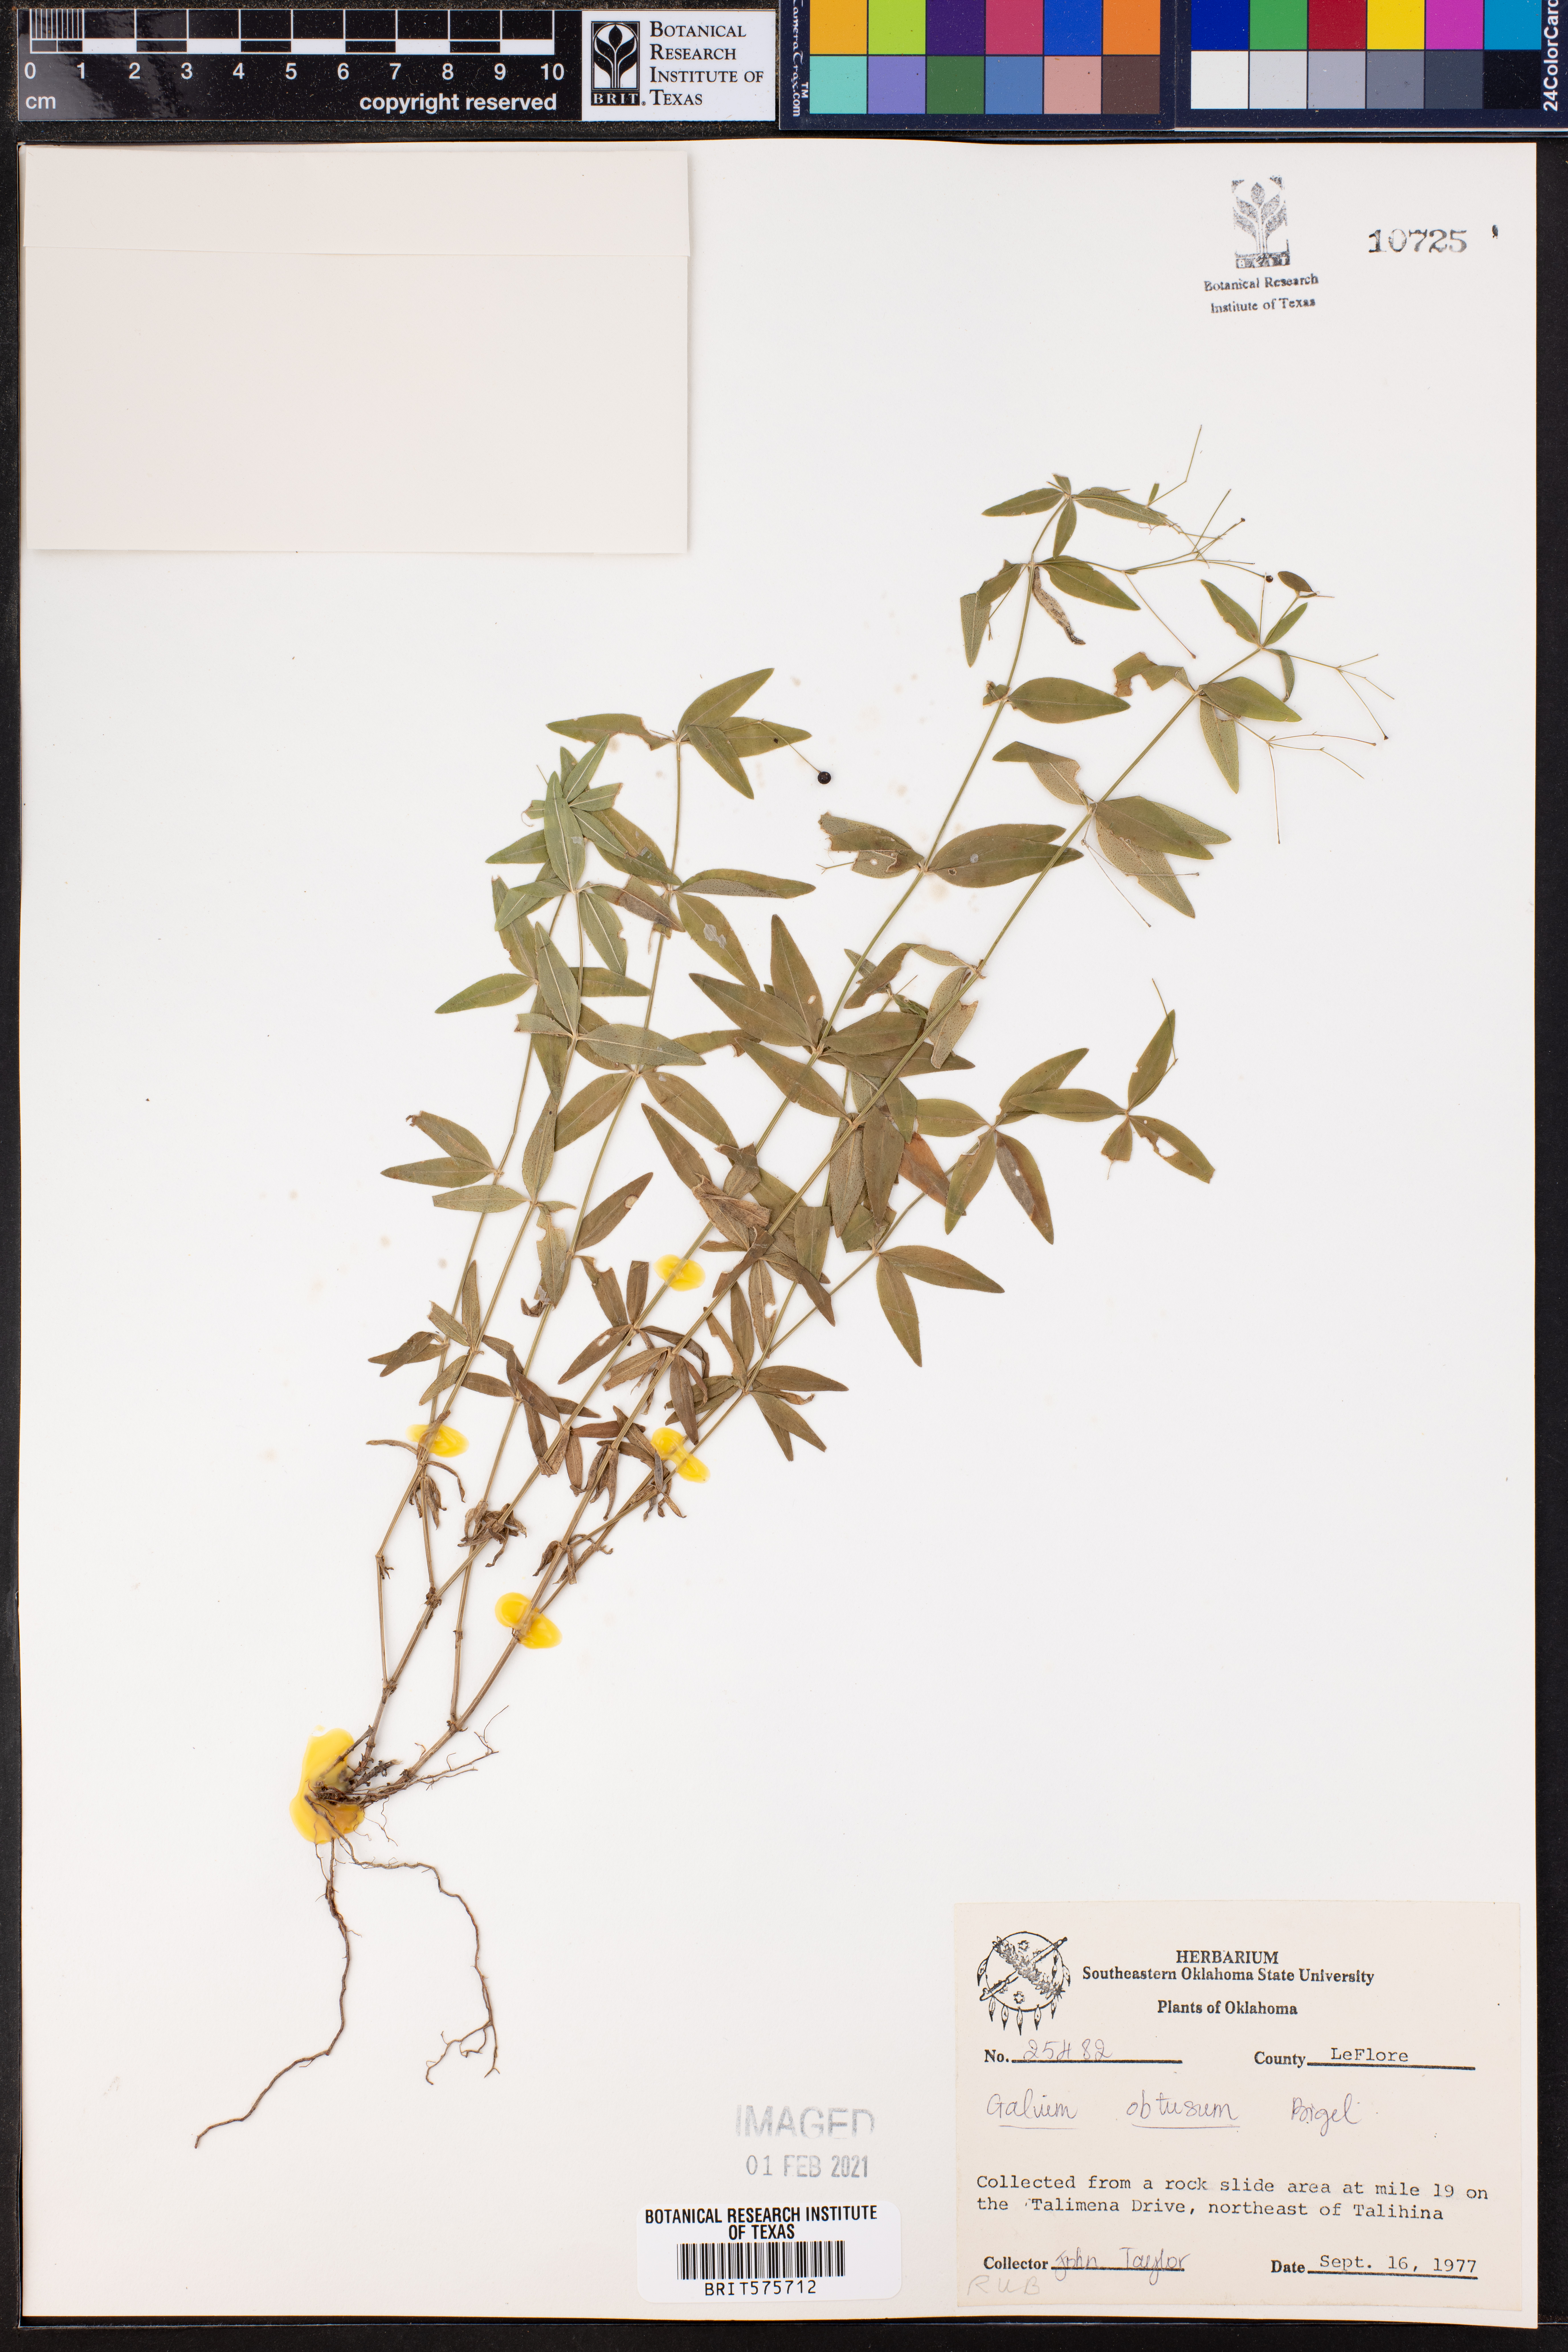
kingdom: Plantae
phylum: Tracheophyta
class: Magnoliopsida
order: Gentianales
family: Rubiaceae
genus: Galium
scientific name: Galium obtusum
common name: Blunt-leaved bedstraw
